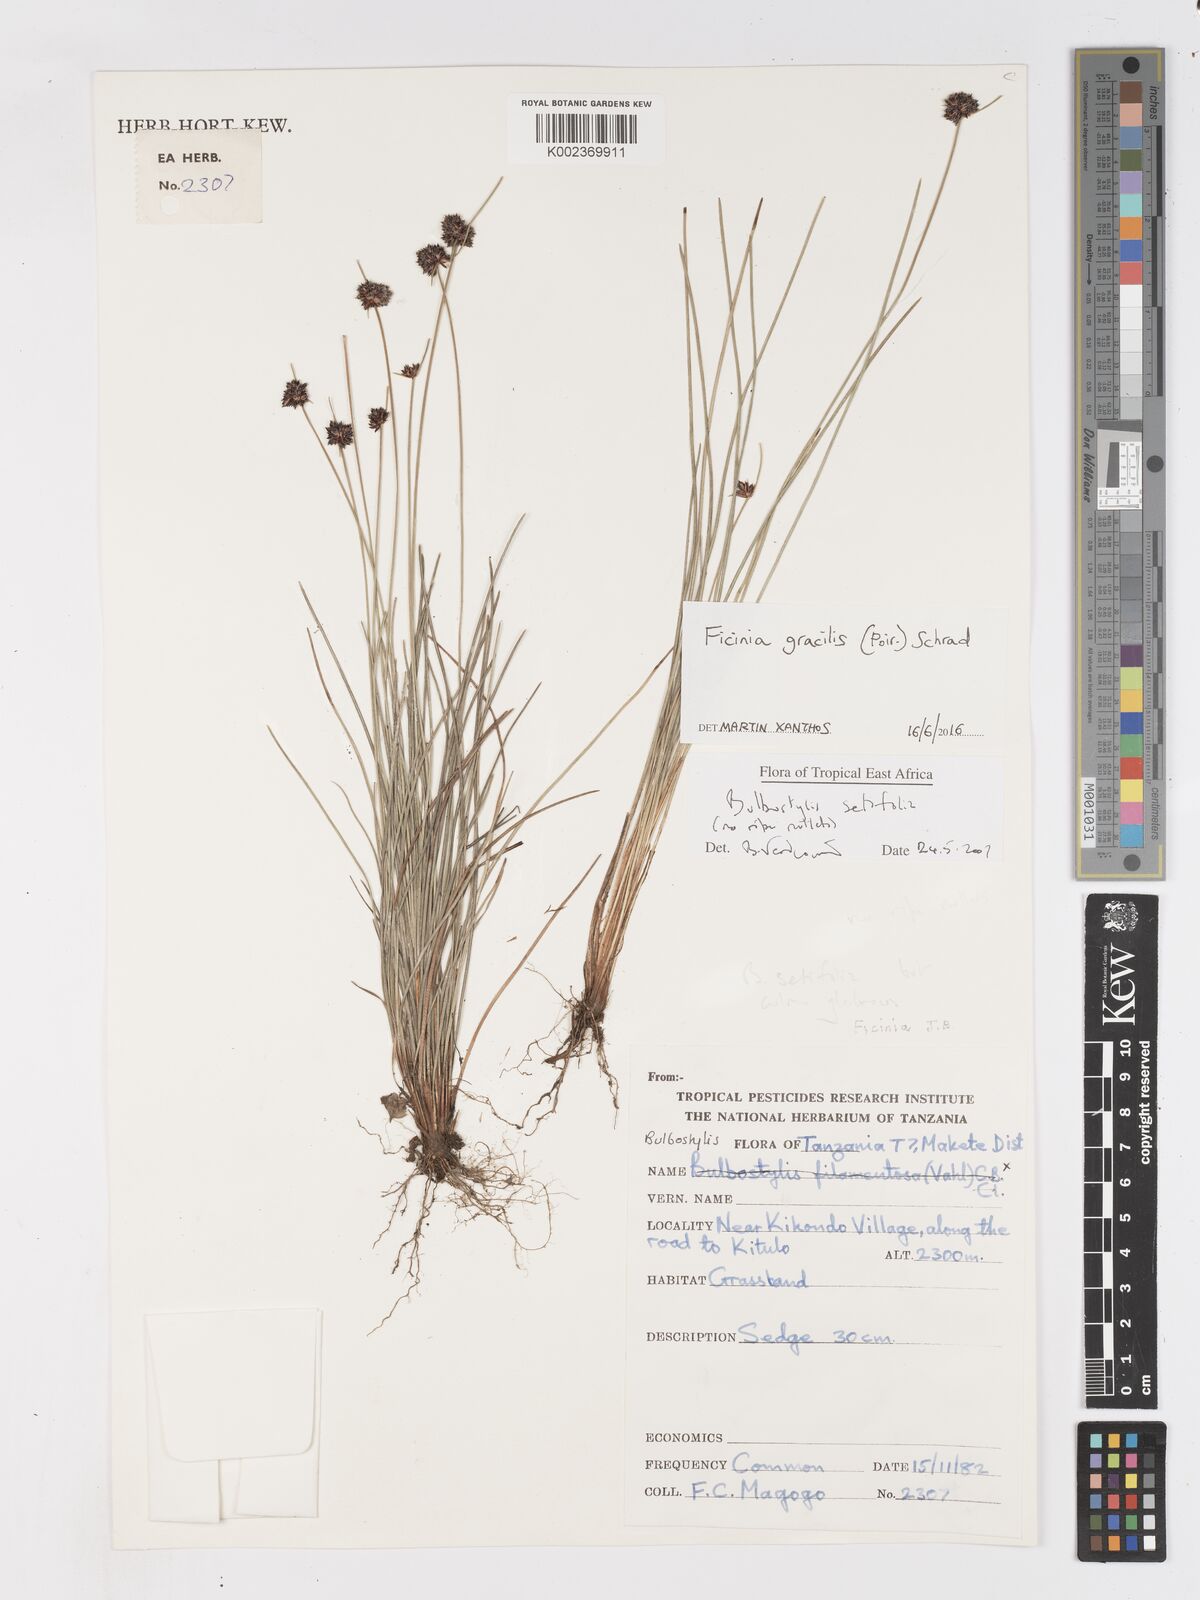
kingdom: Plantae
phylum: Tracheophyta
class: Liliopsida
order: Poales
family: Cyperaceae
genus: Ficinia
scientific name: Ficinia gracilis
